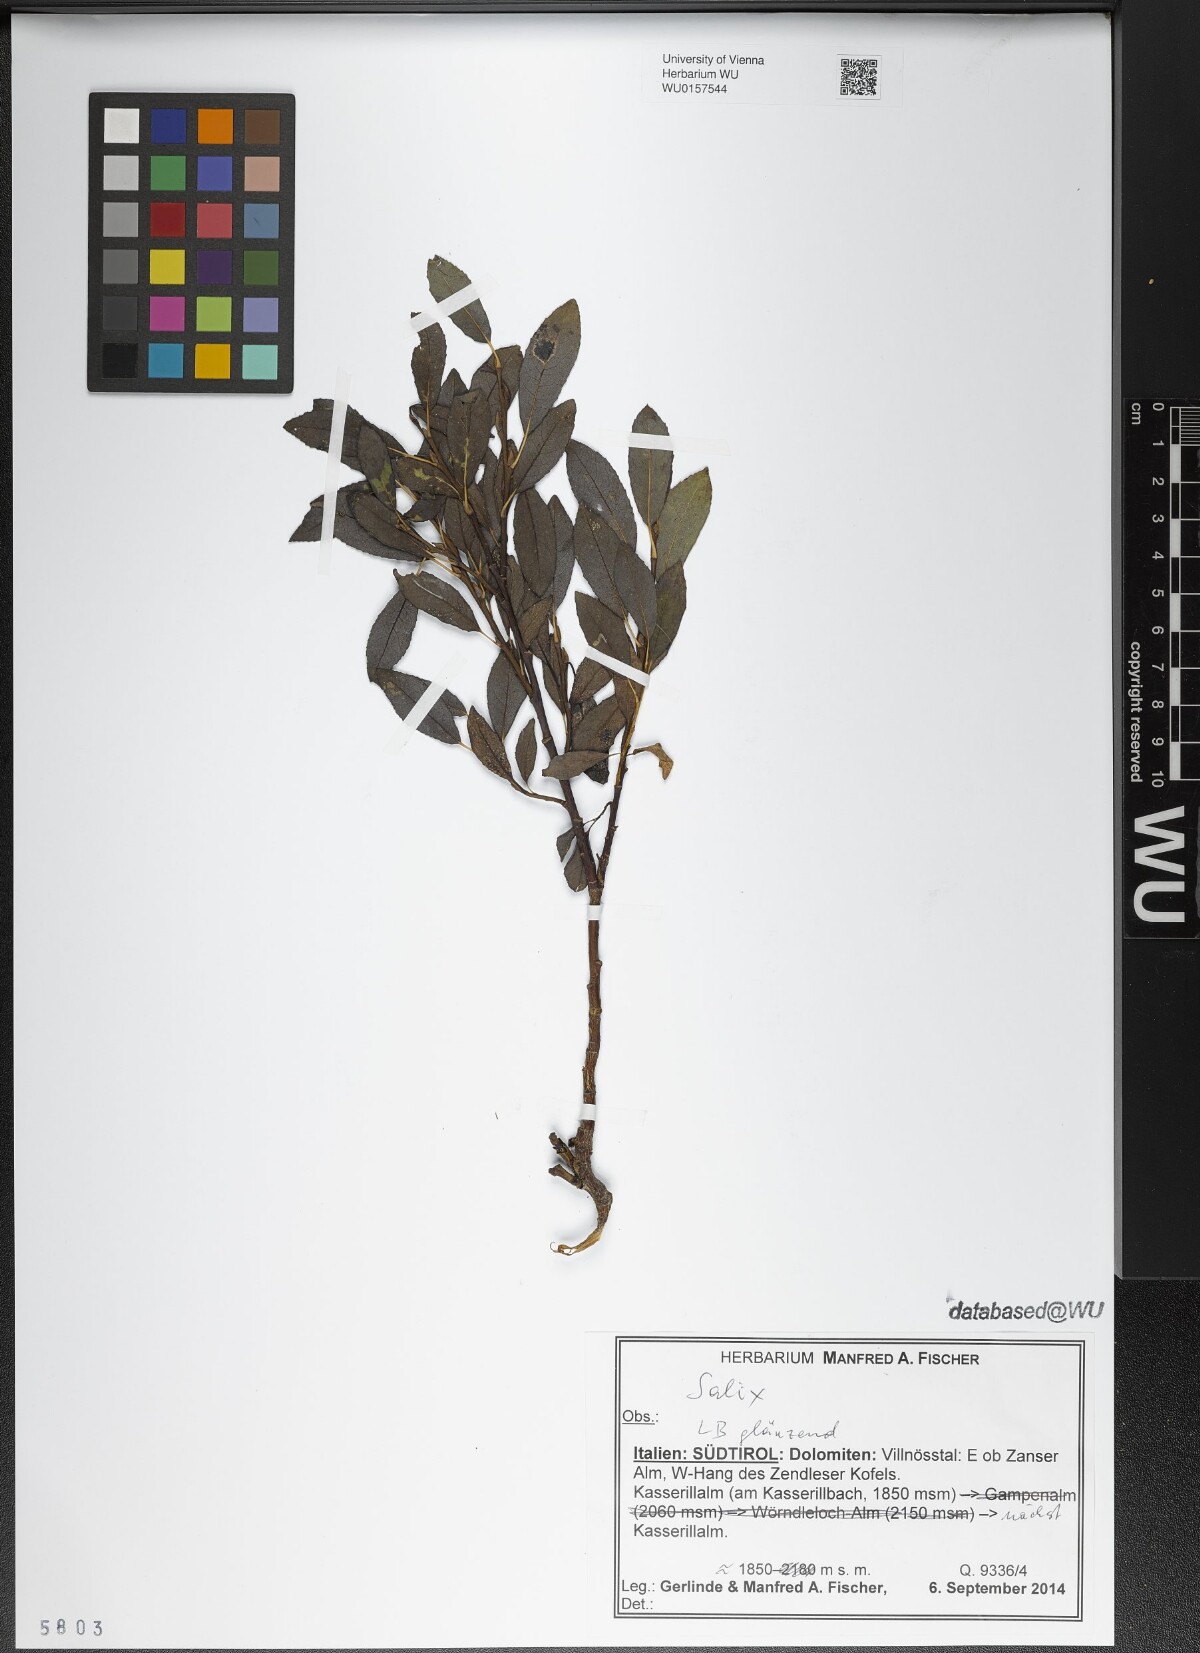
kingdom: Plantae
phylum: Tracheophyta
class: Magnoliopsida
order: Malpighiales
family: Salicaceae
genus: Salix
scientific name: Salix
